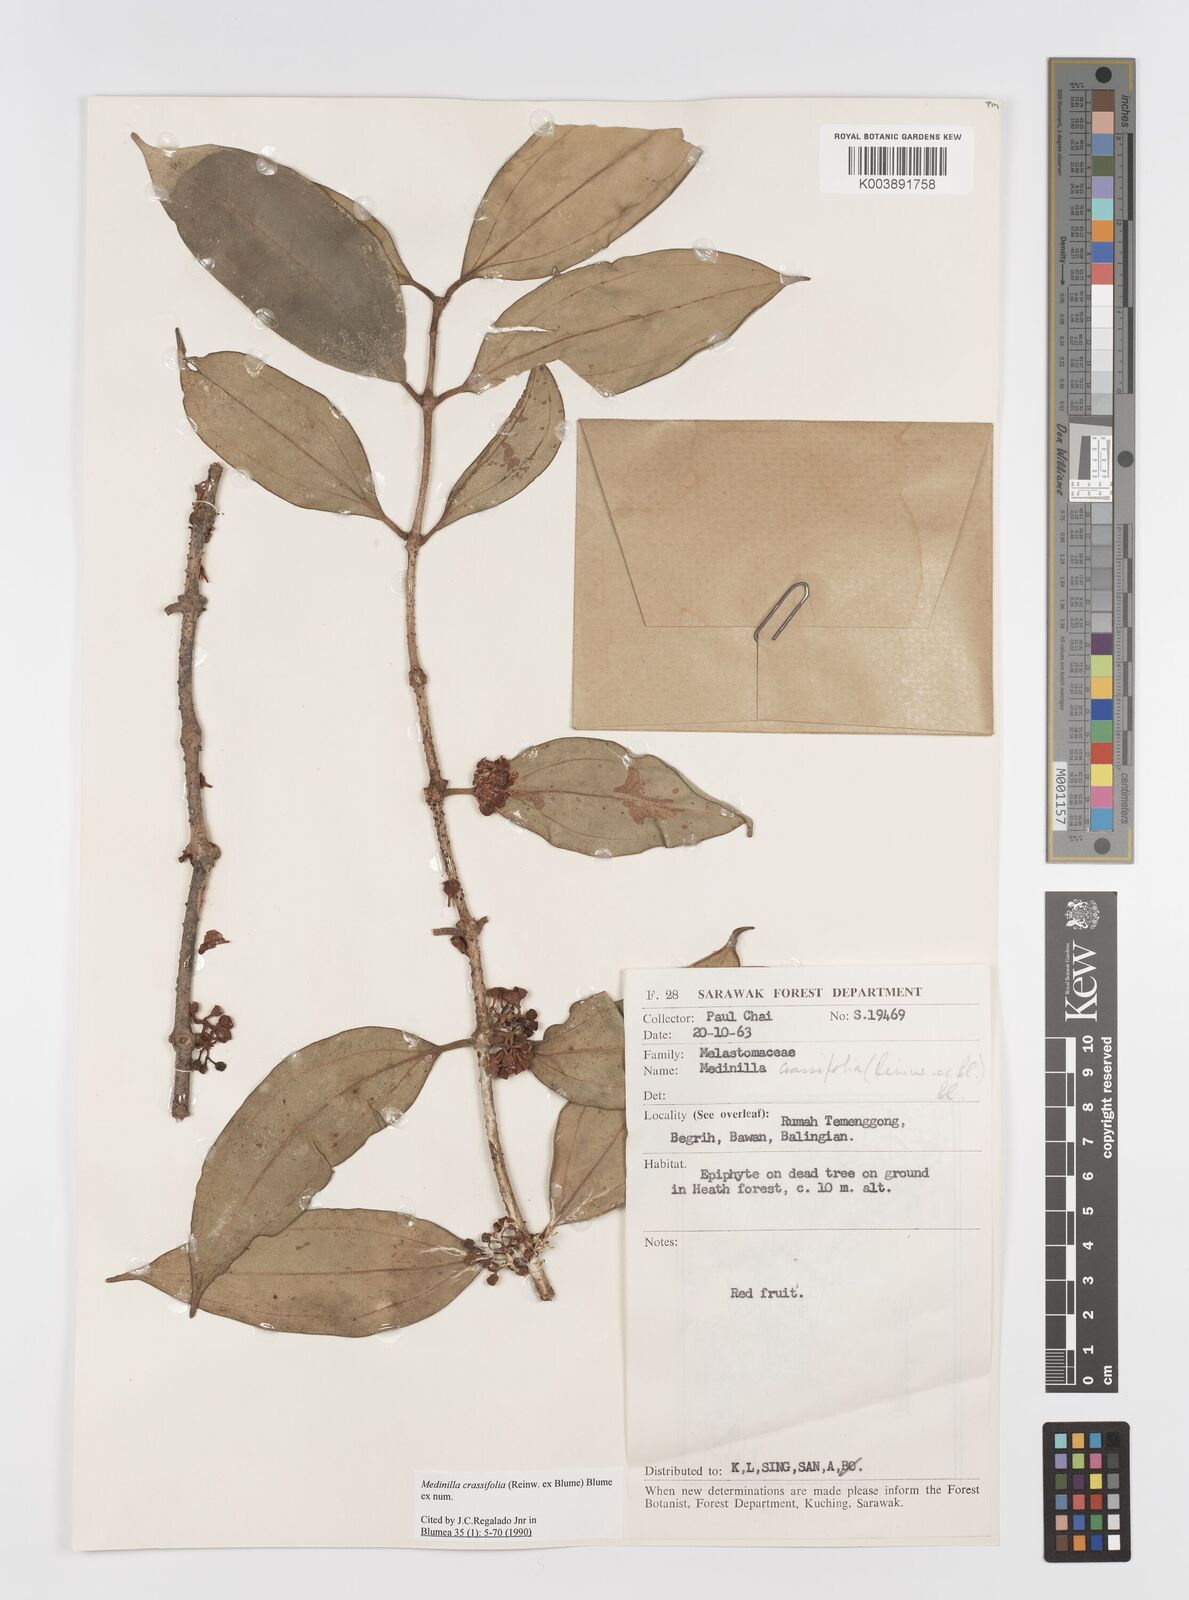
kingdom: Plantae
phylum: Tracheophyta
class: Magnoliopsida
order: Myrtales
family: Melastomataceae
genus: Medinilla
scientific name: Medinilla crassifolia
